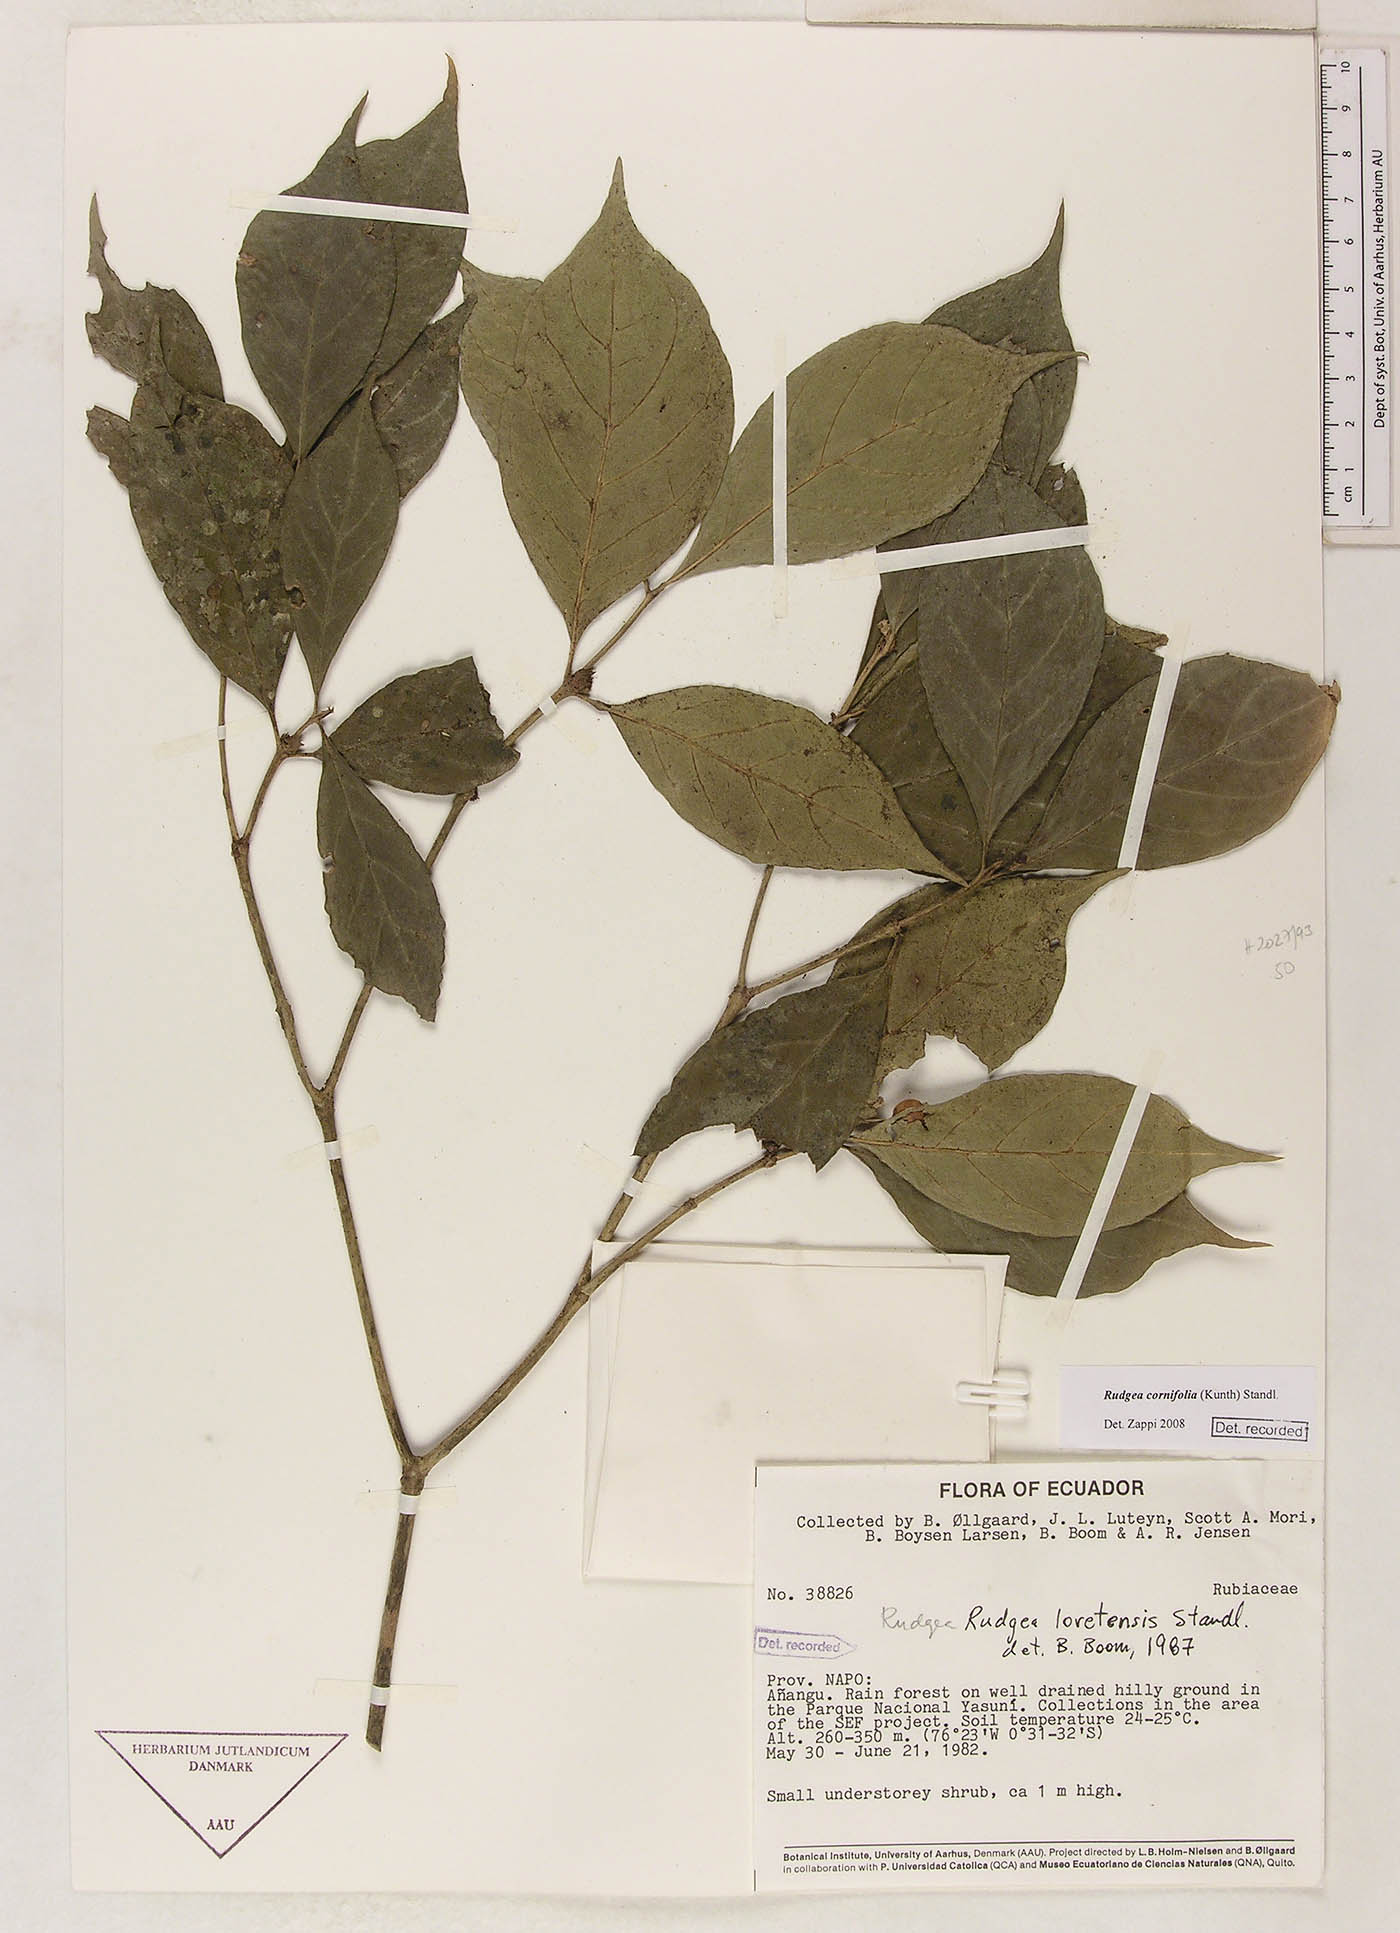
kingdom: Plantae
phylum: Tracheophyta
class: Magnoliopsida
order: Gentianales
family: Rubiaceae
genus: Rudgea
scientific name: Rudgea cornifolia
